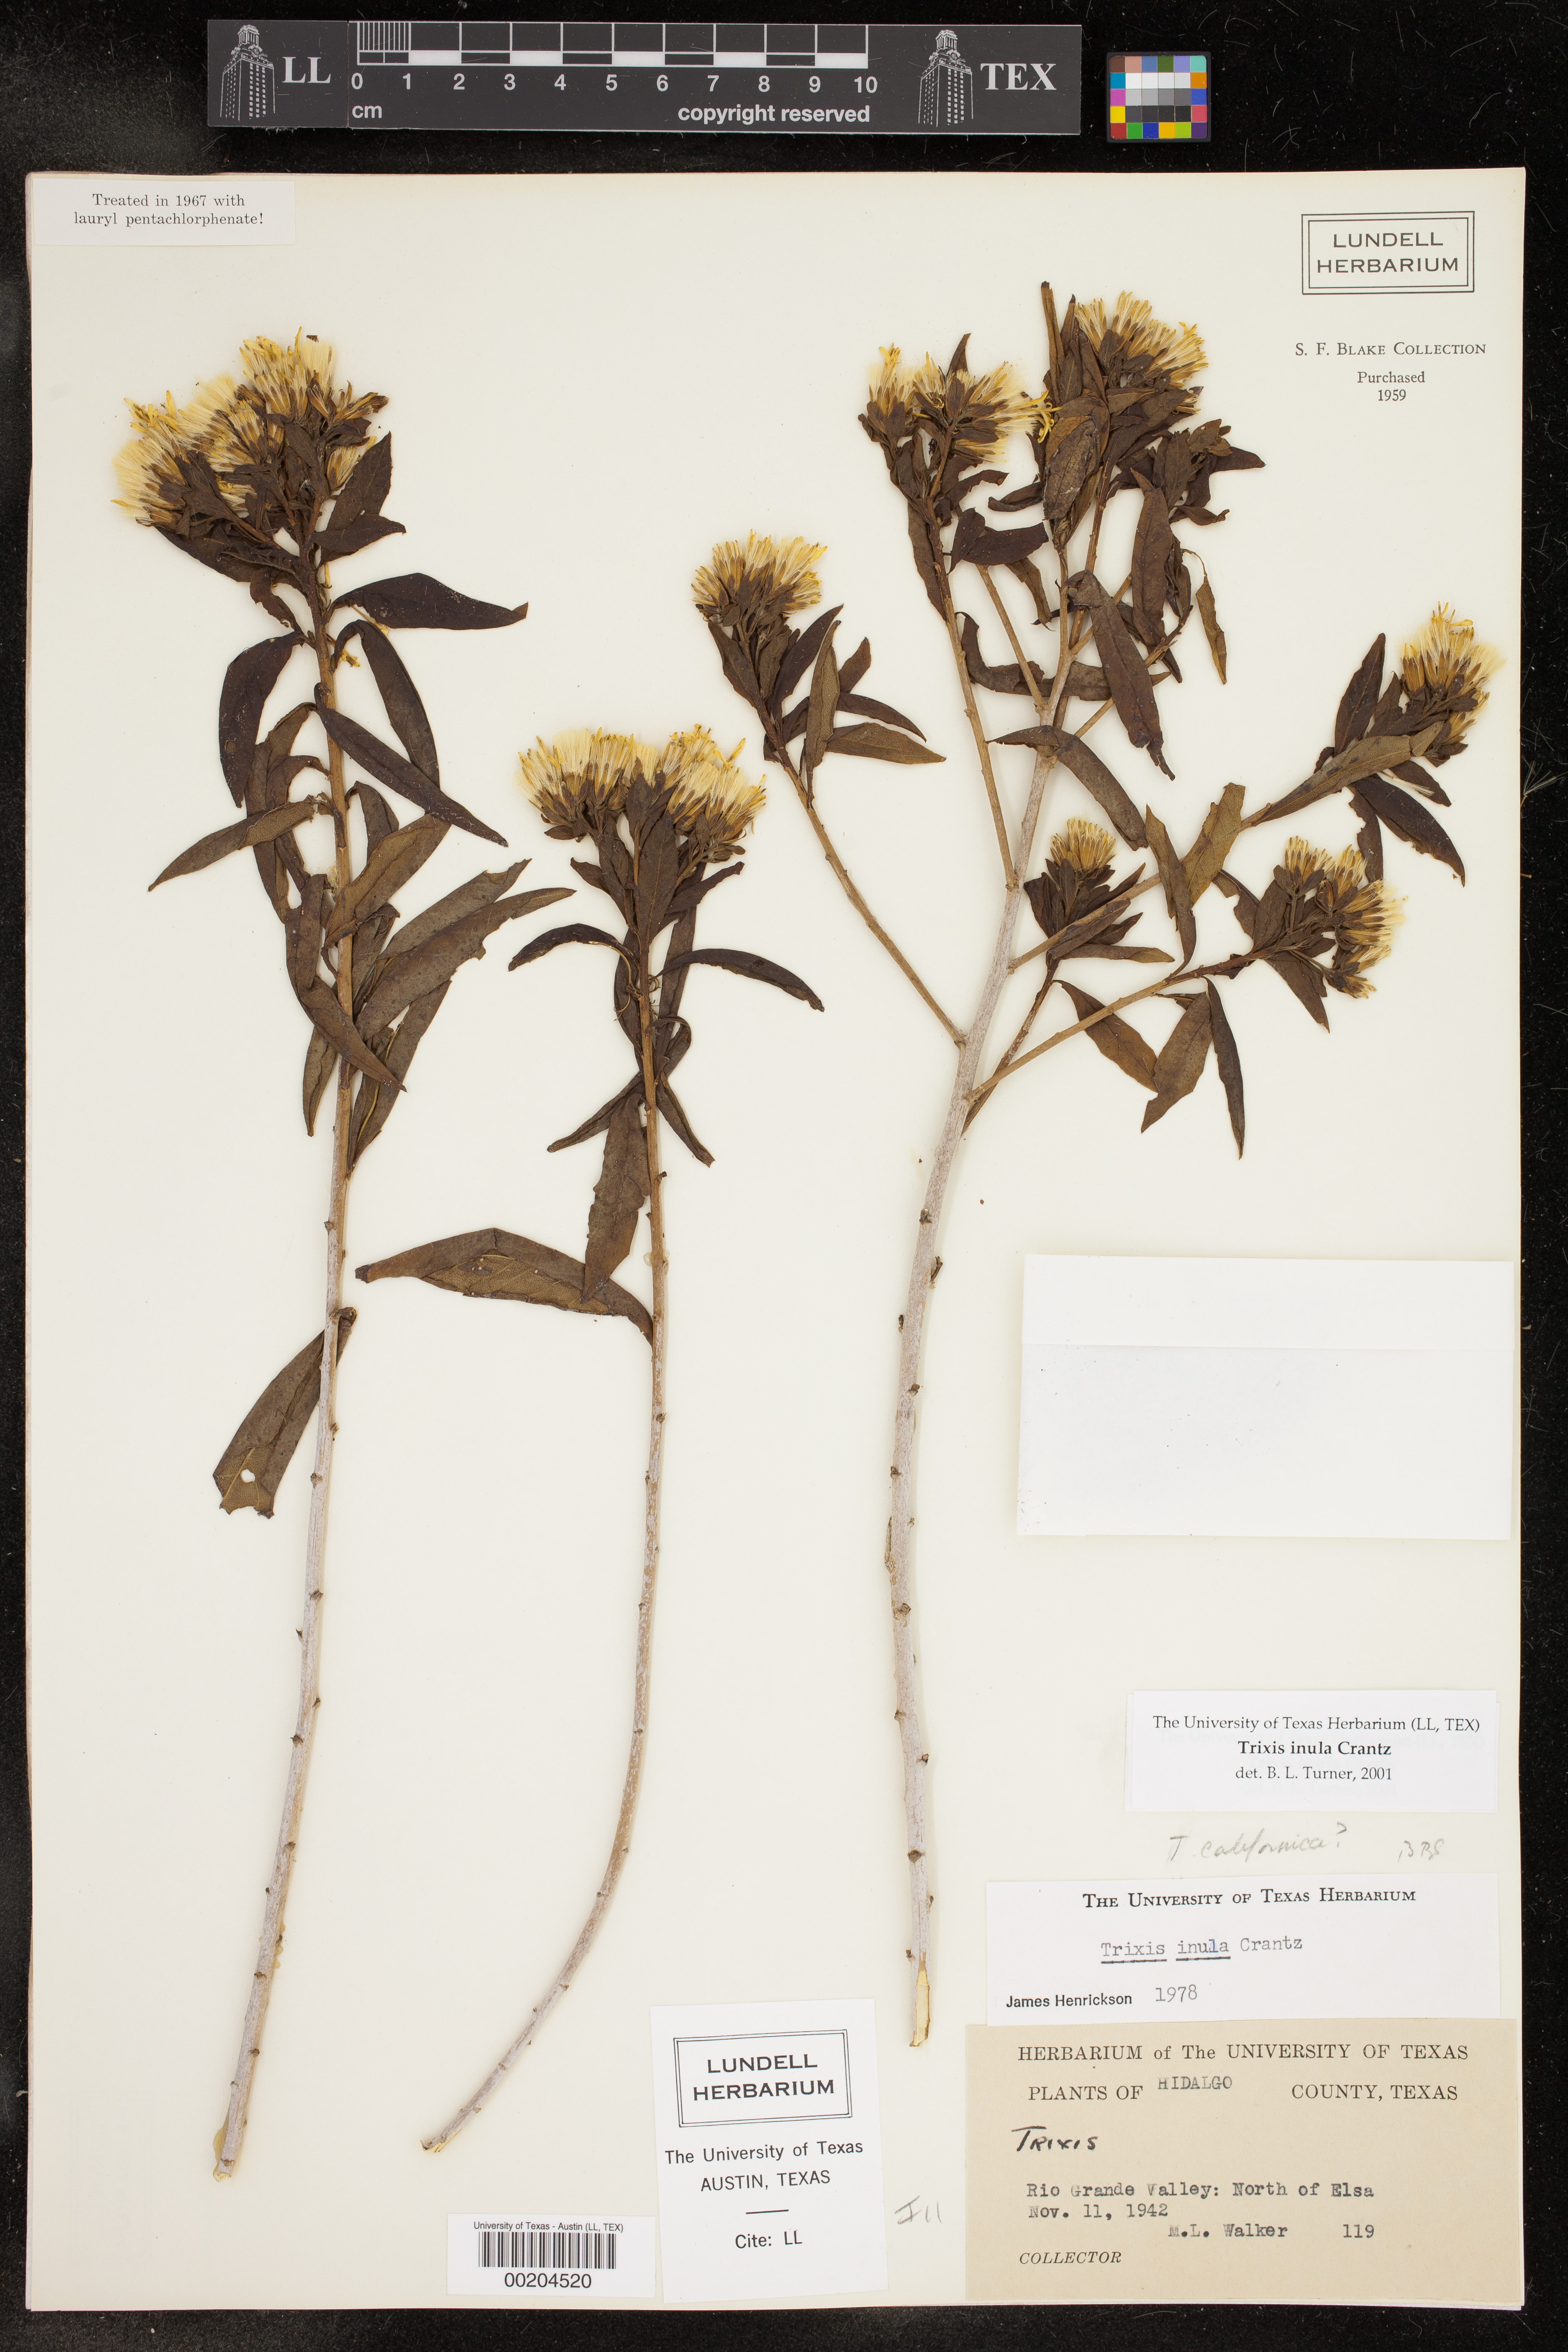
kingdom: Plantae
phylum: Tracheophyta
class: Magnoliopsida
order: Asterales
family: Asteraceae
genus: Trixis
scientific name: Trixis inula
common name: Tropical threefold
